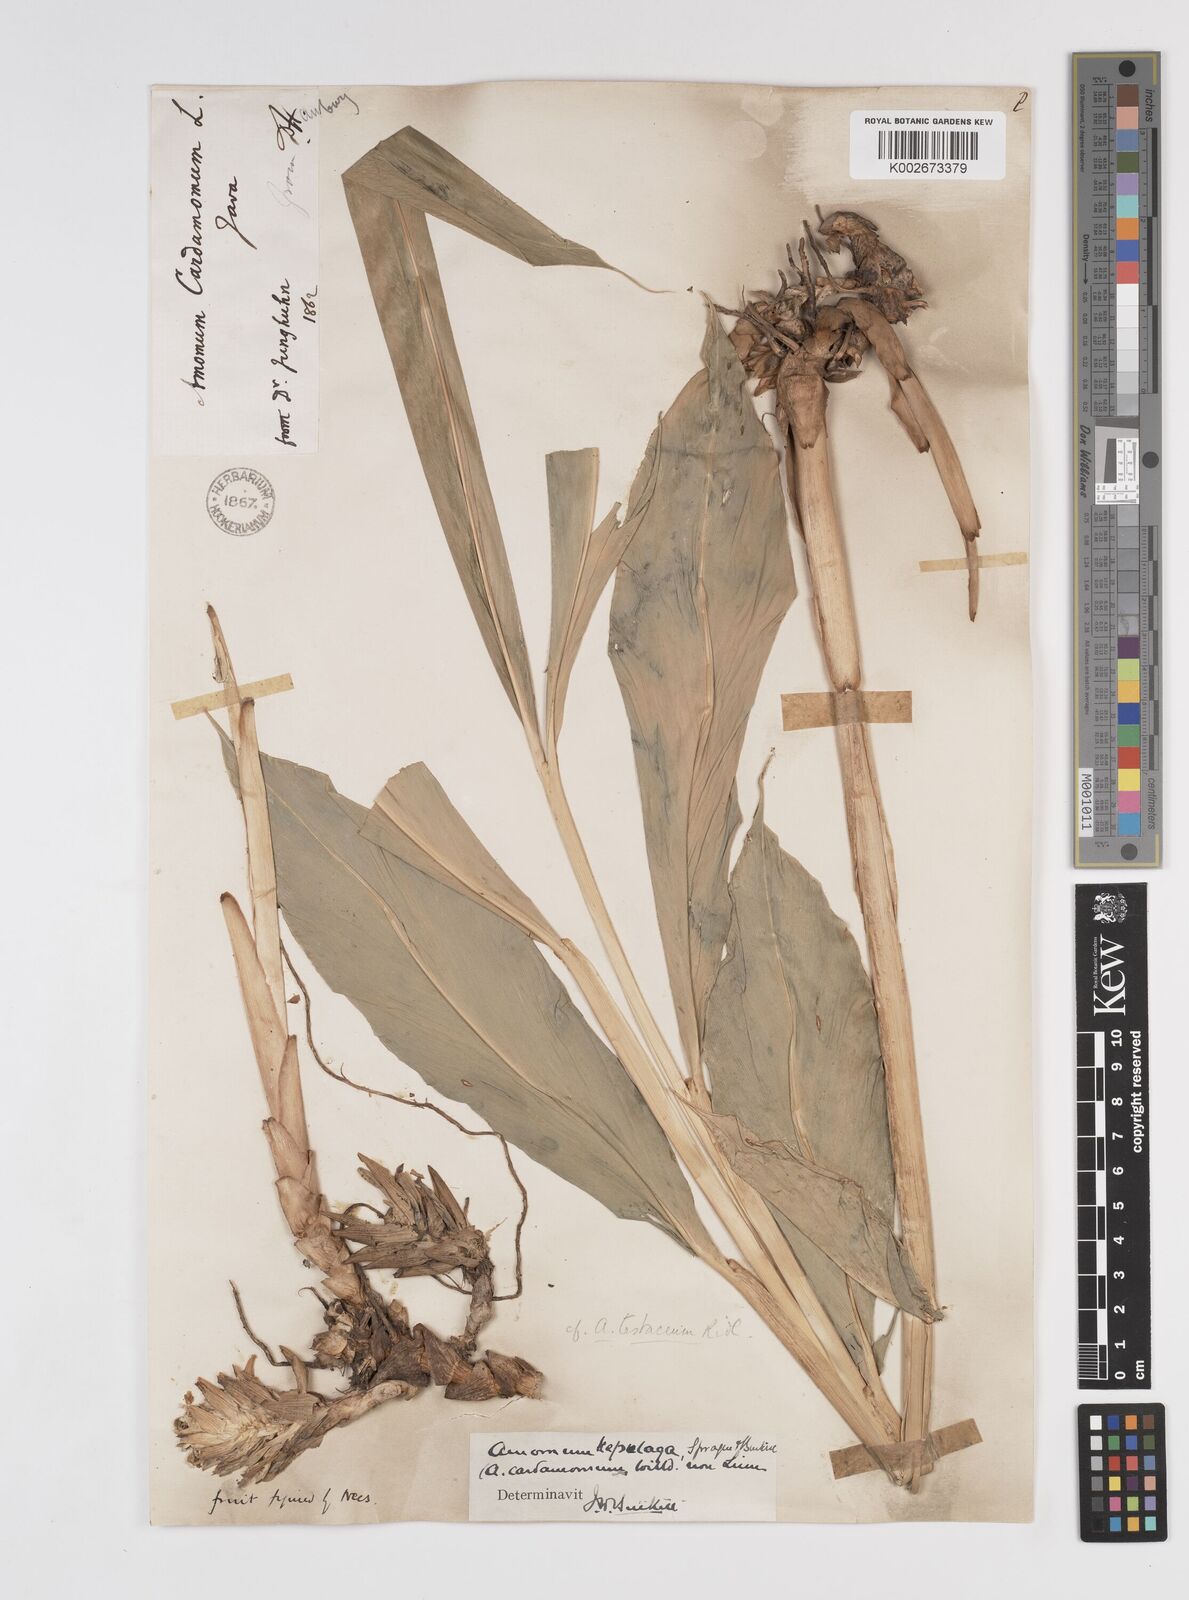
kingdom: Plantae
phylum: Tracheophyta
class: Liliopsida
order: Zingiberales
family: Zingiberaceae
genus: Wurfbainia
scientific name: Wurfbainia compacta
